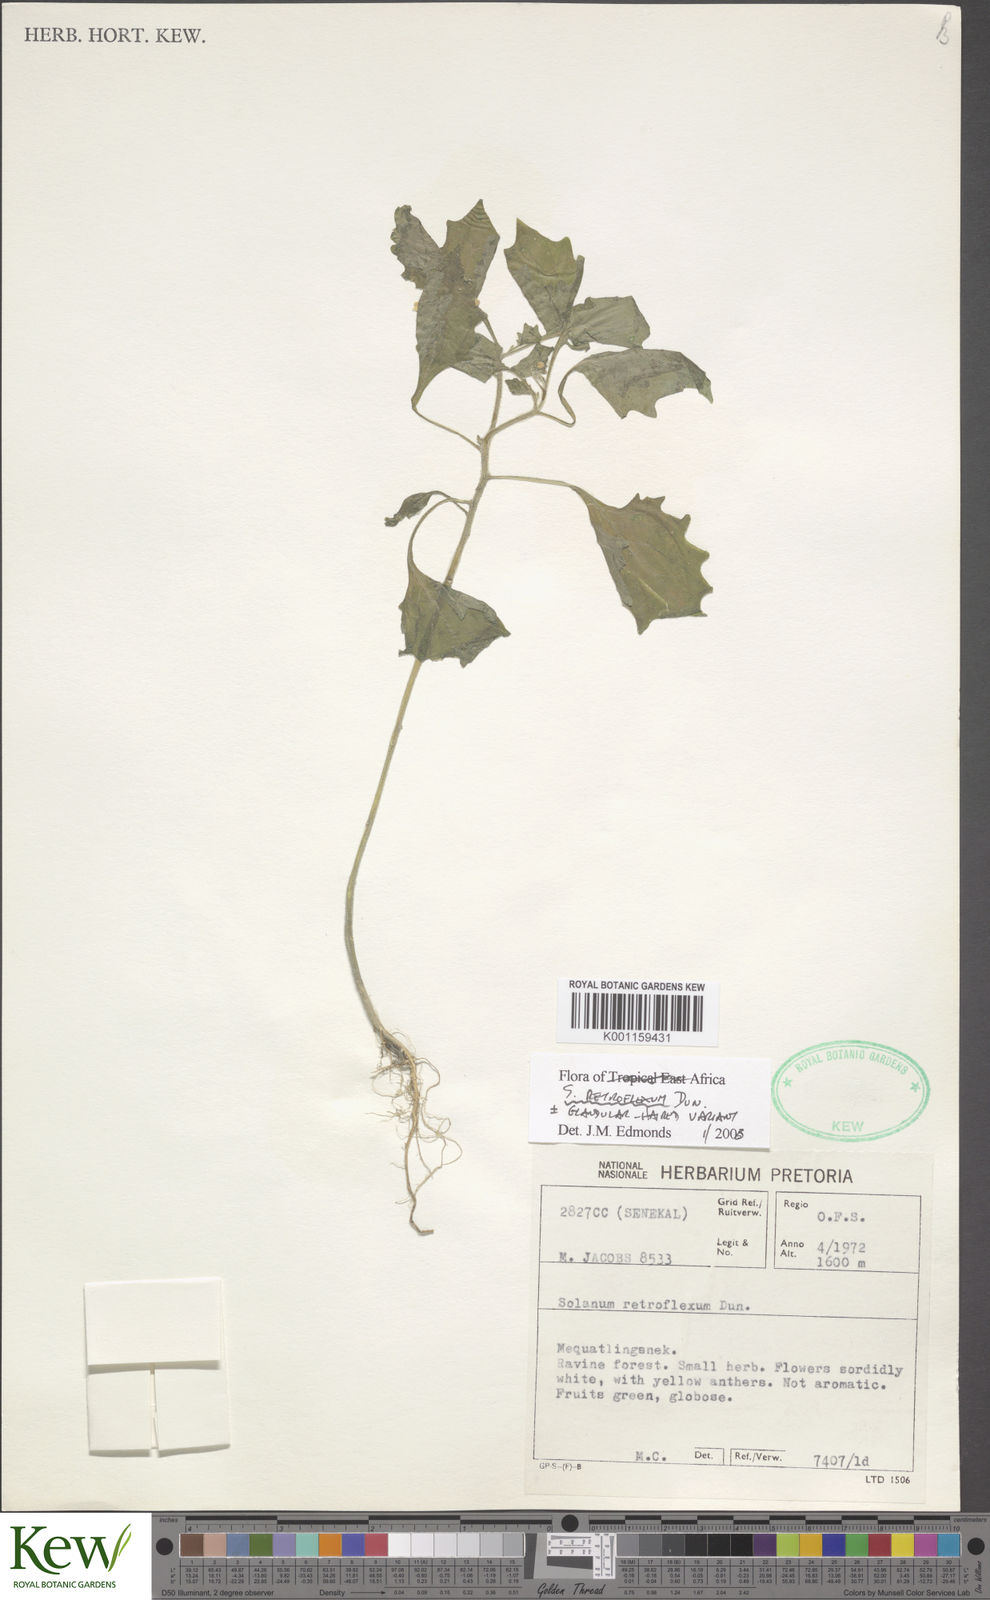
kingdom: Plantae
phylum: Tracheophyta
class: Magnoliopsida
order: Solanales
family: Solanaceae
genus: Solanum
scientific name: Solanum retroflexum
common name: Wonderberry
